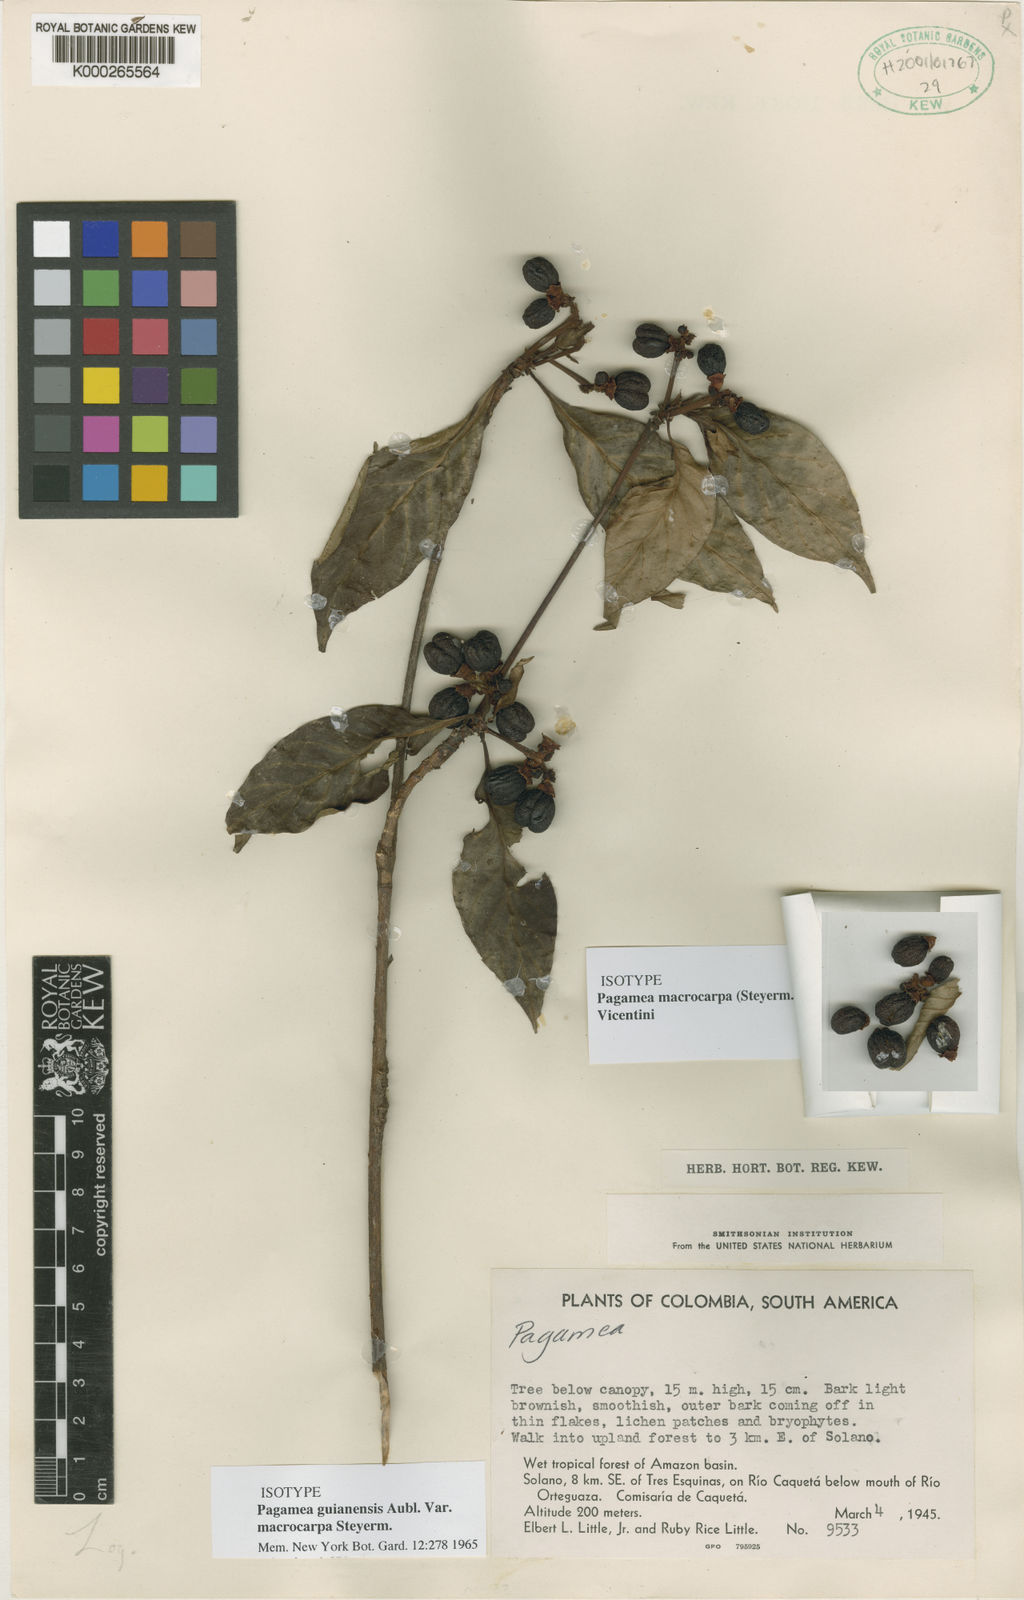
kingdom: Plantae
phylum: Tracheophyta
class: Magnoliopsida
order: Gentianales
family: Rubiaceae
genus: Pagamea
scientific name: Pagamea guianensis
